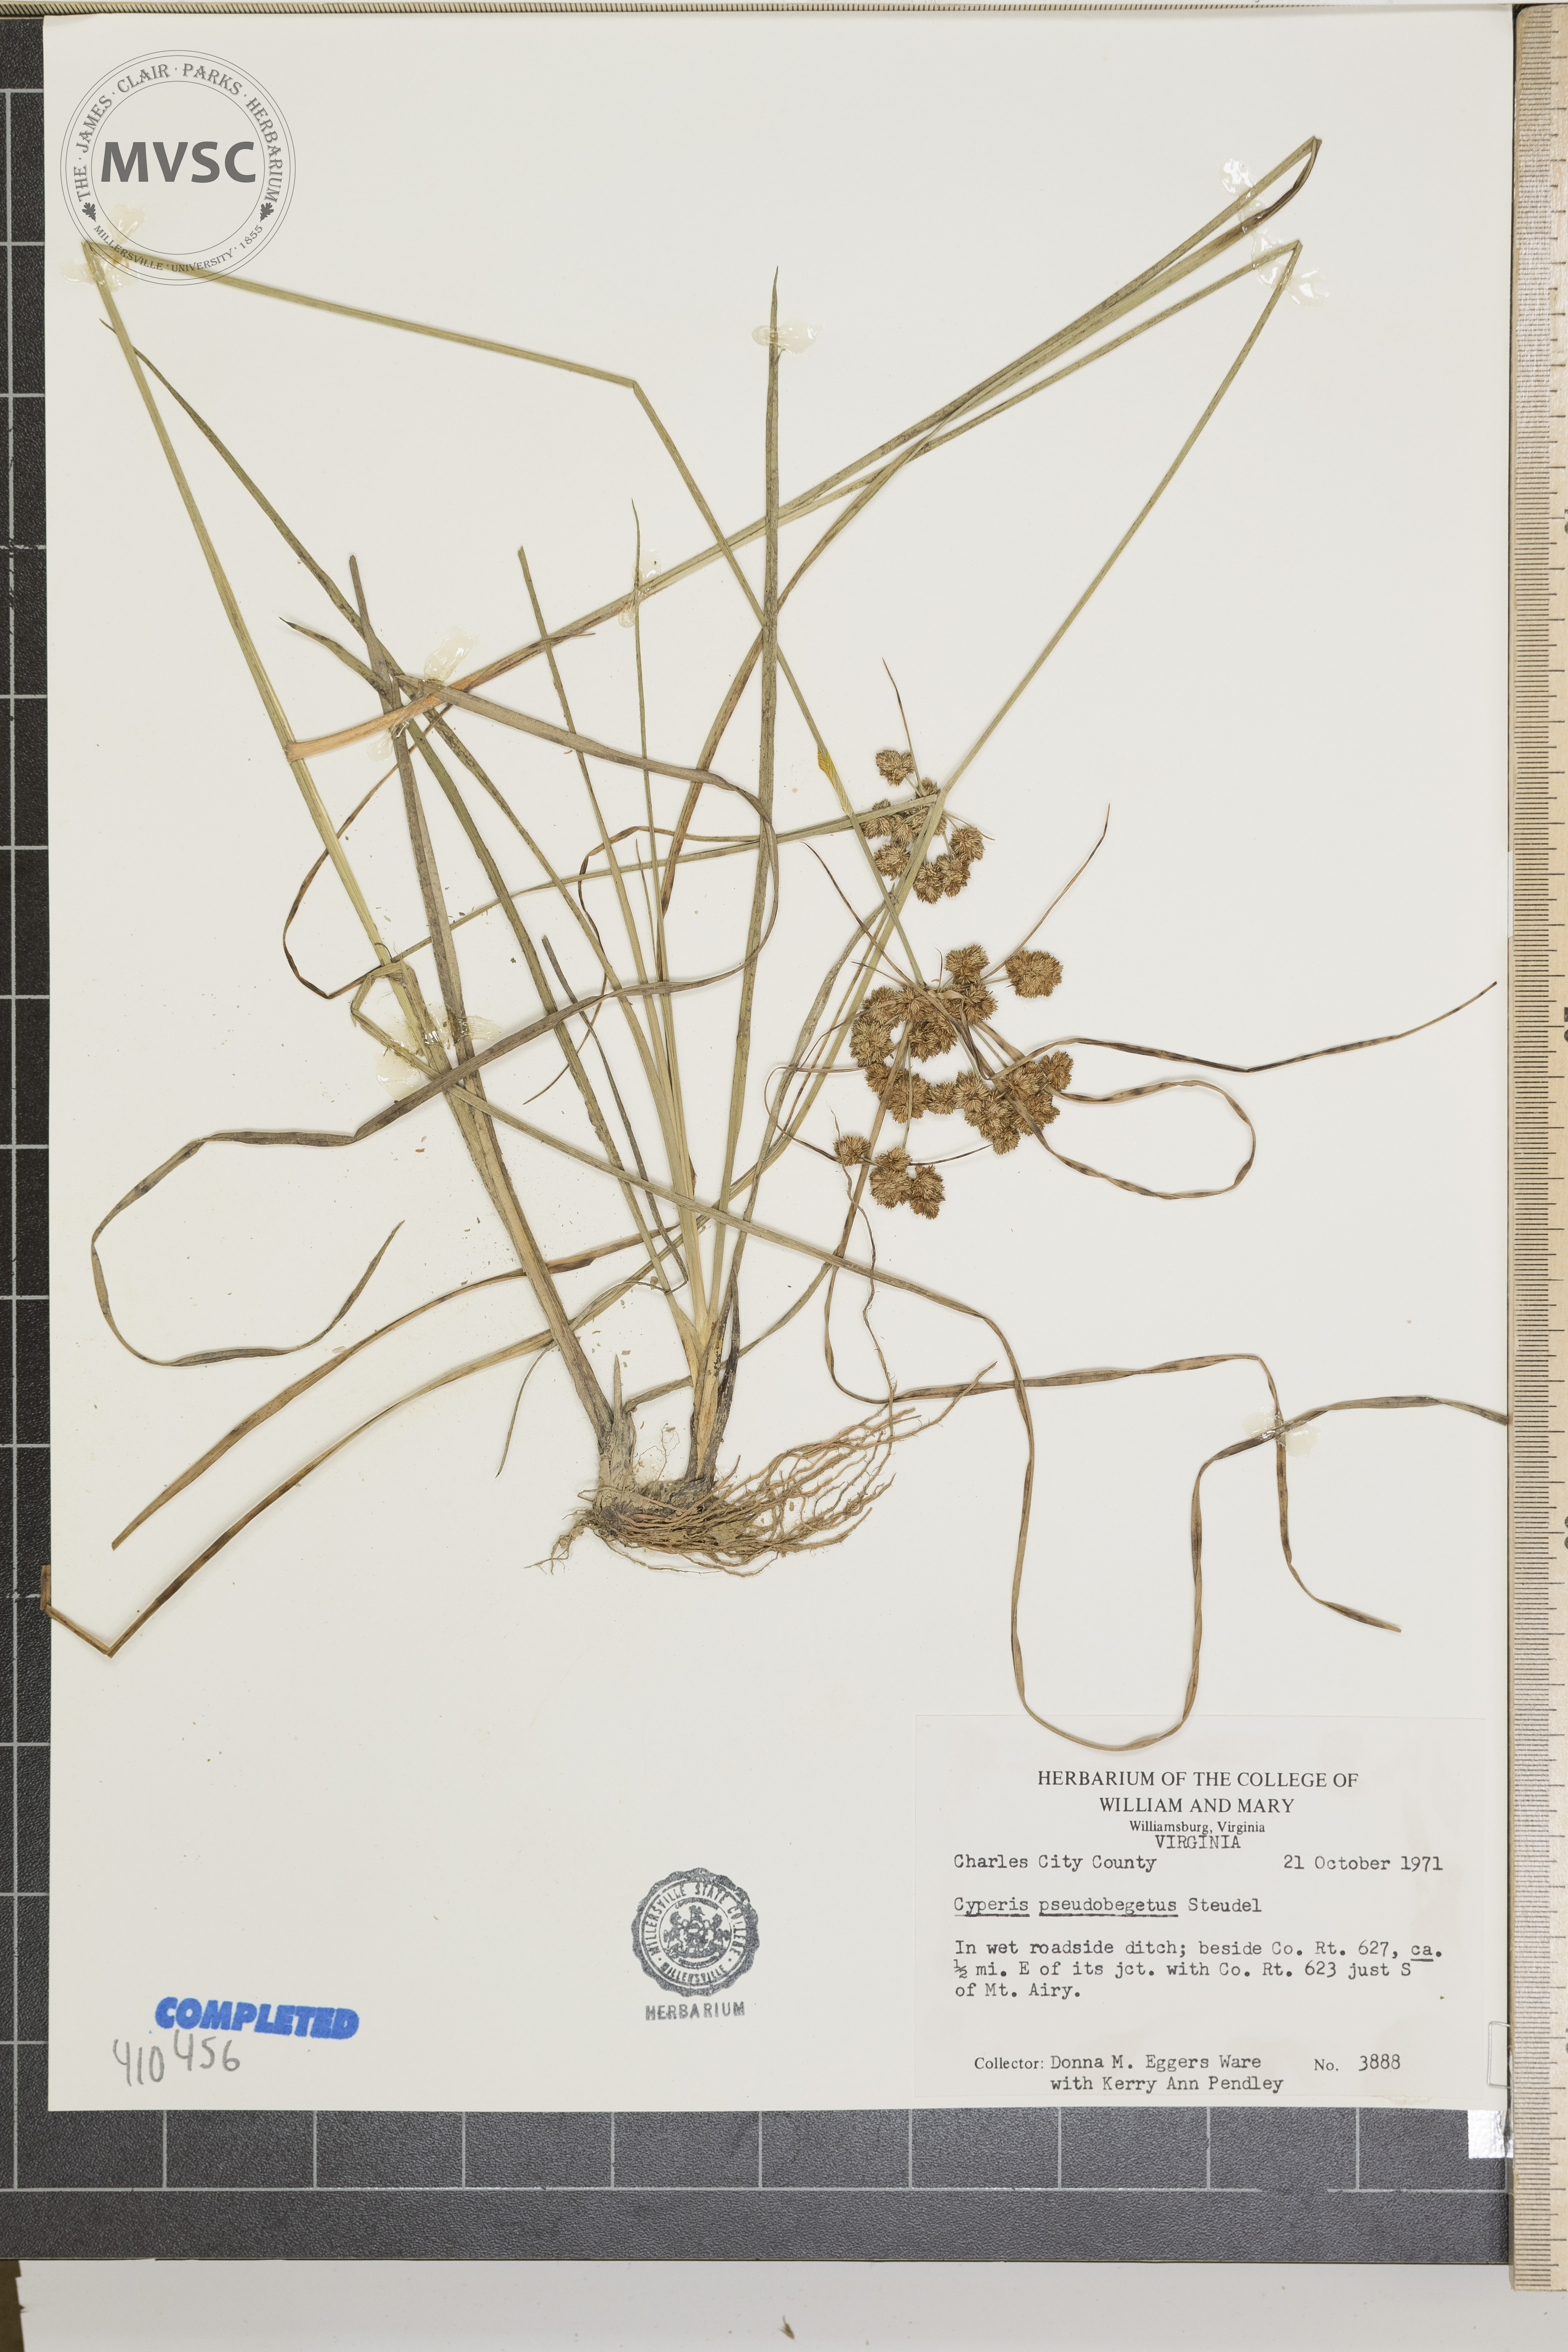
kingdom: Plantae
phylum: Tracheophyta
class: Liliopsida
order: Poales
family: Cyperaceae
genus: Cyperus
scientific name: Cyperus pseudovegetus
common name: Marsh flat sedge
